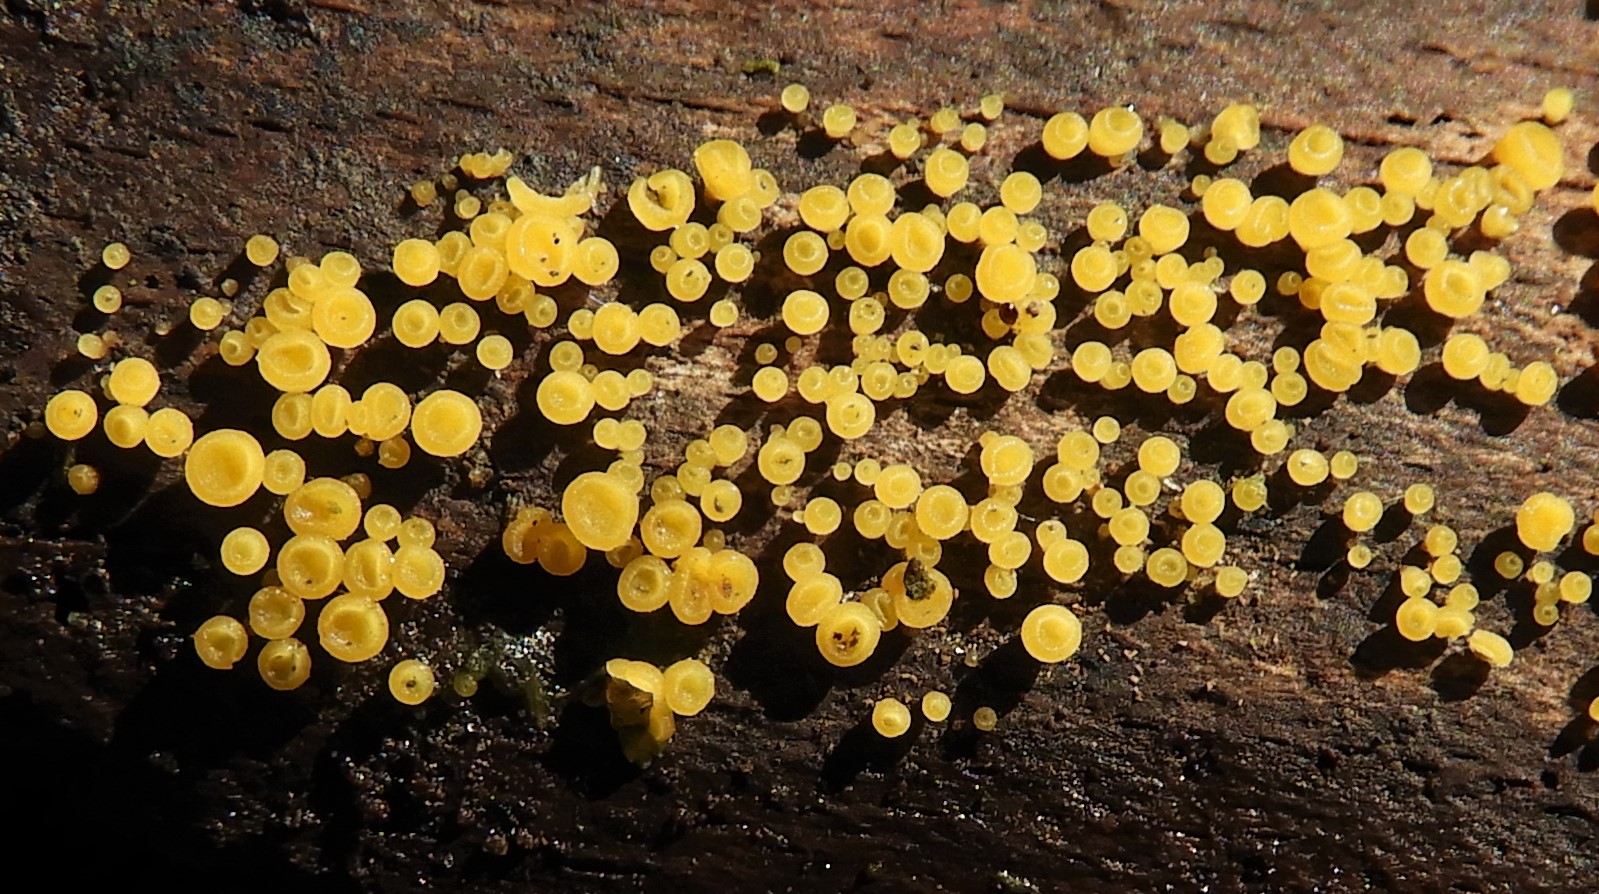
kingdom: Fungi
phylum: Ascomycota
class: Leotiomycetes
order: Helotiales
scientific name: Helotiales
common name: stilkskiveordenen
